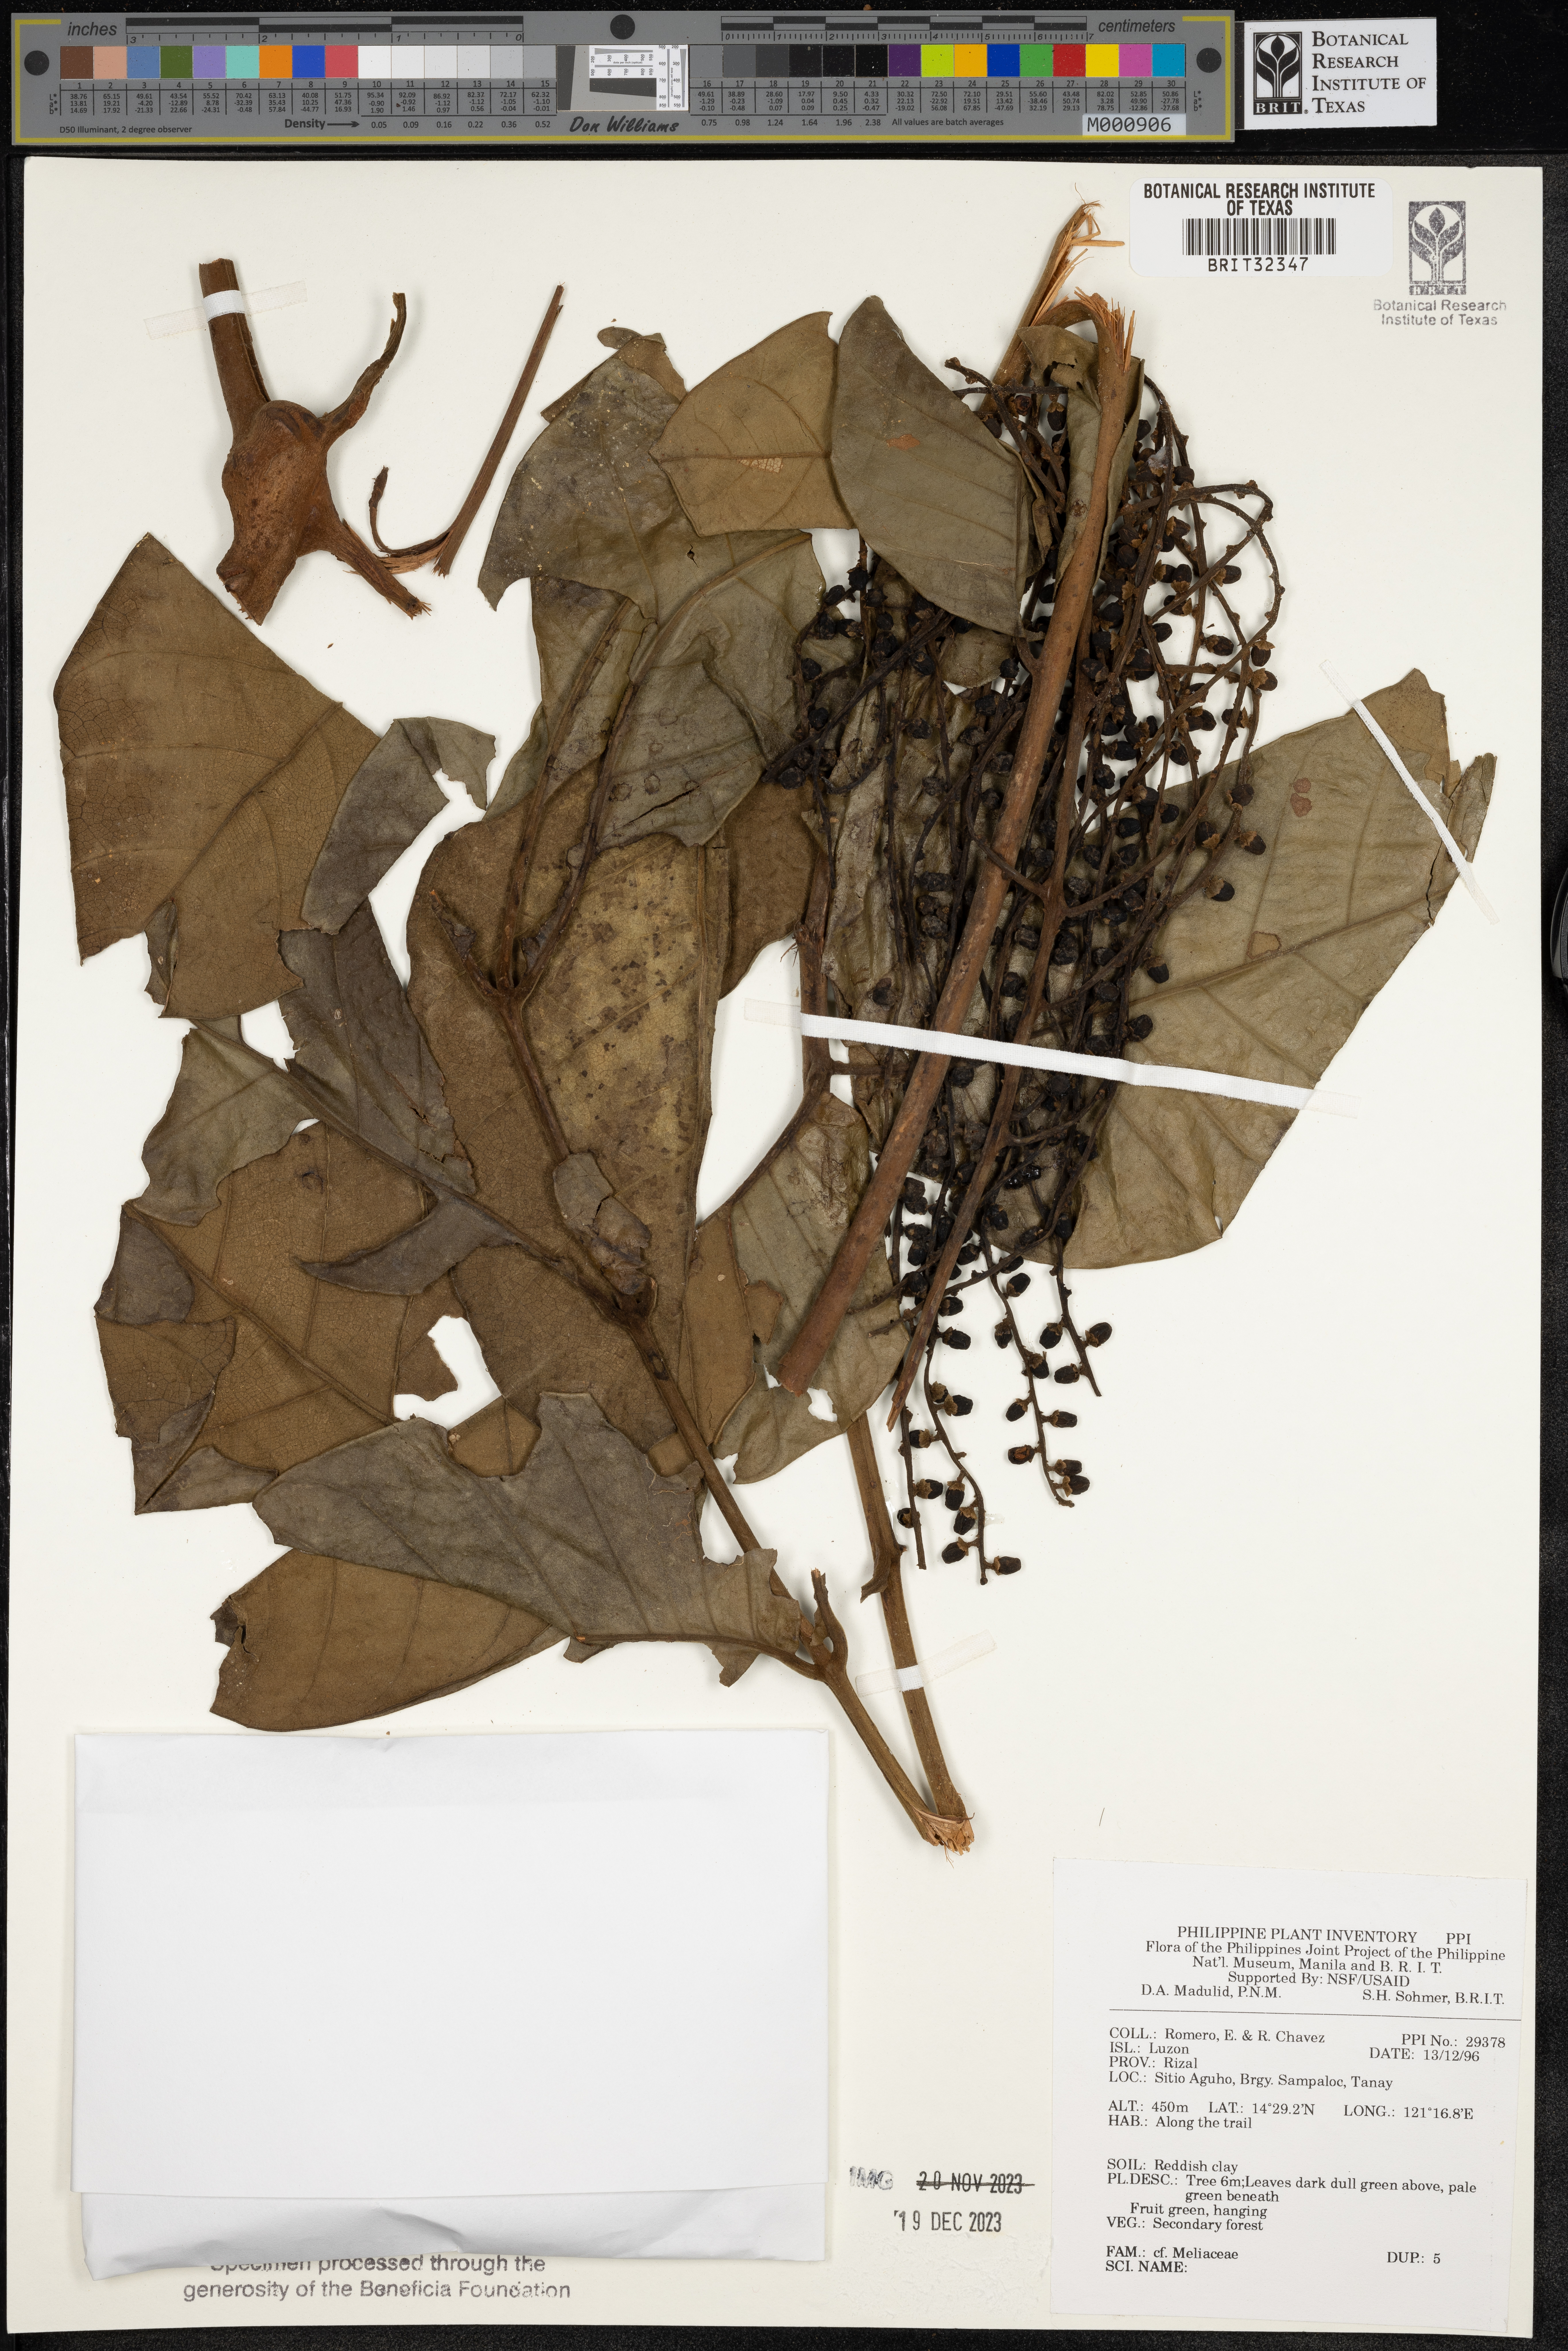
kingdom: Plantae
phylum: Tracheophyta
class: Magnoliopsida
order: Sapindales
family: Meliaceae
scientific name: Meliaceae
